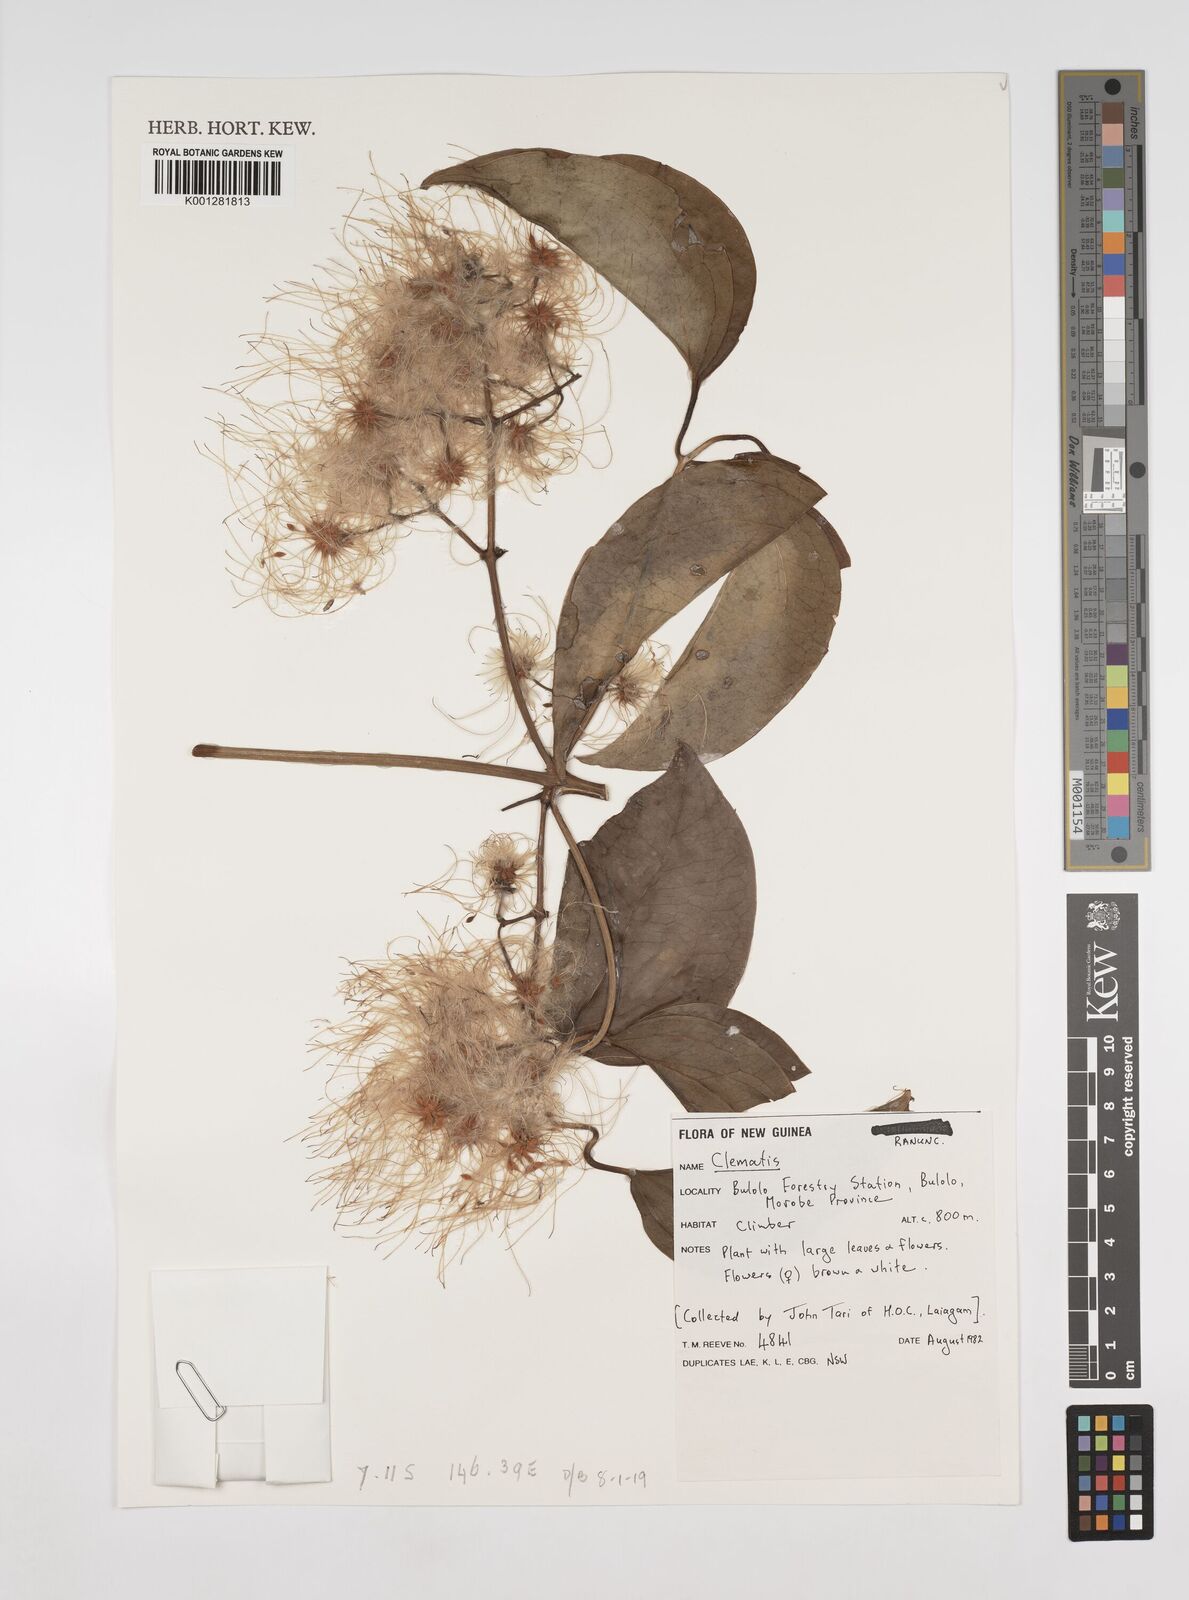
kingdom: Plantae
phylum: Tracheophyta
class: Magnoliopsida
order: Ranunculales
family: Ranunculaceae
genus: Clematis
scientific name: Clematis
